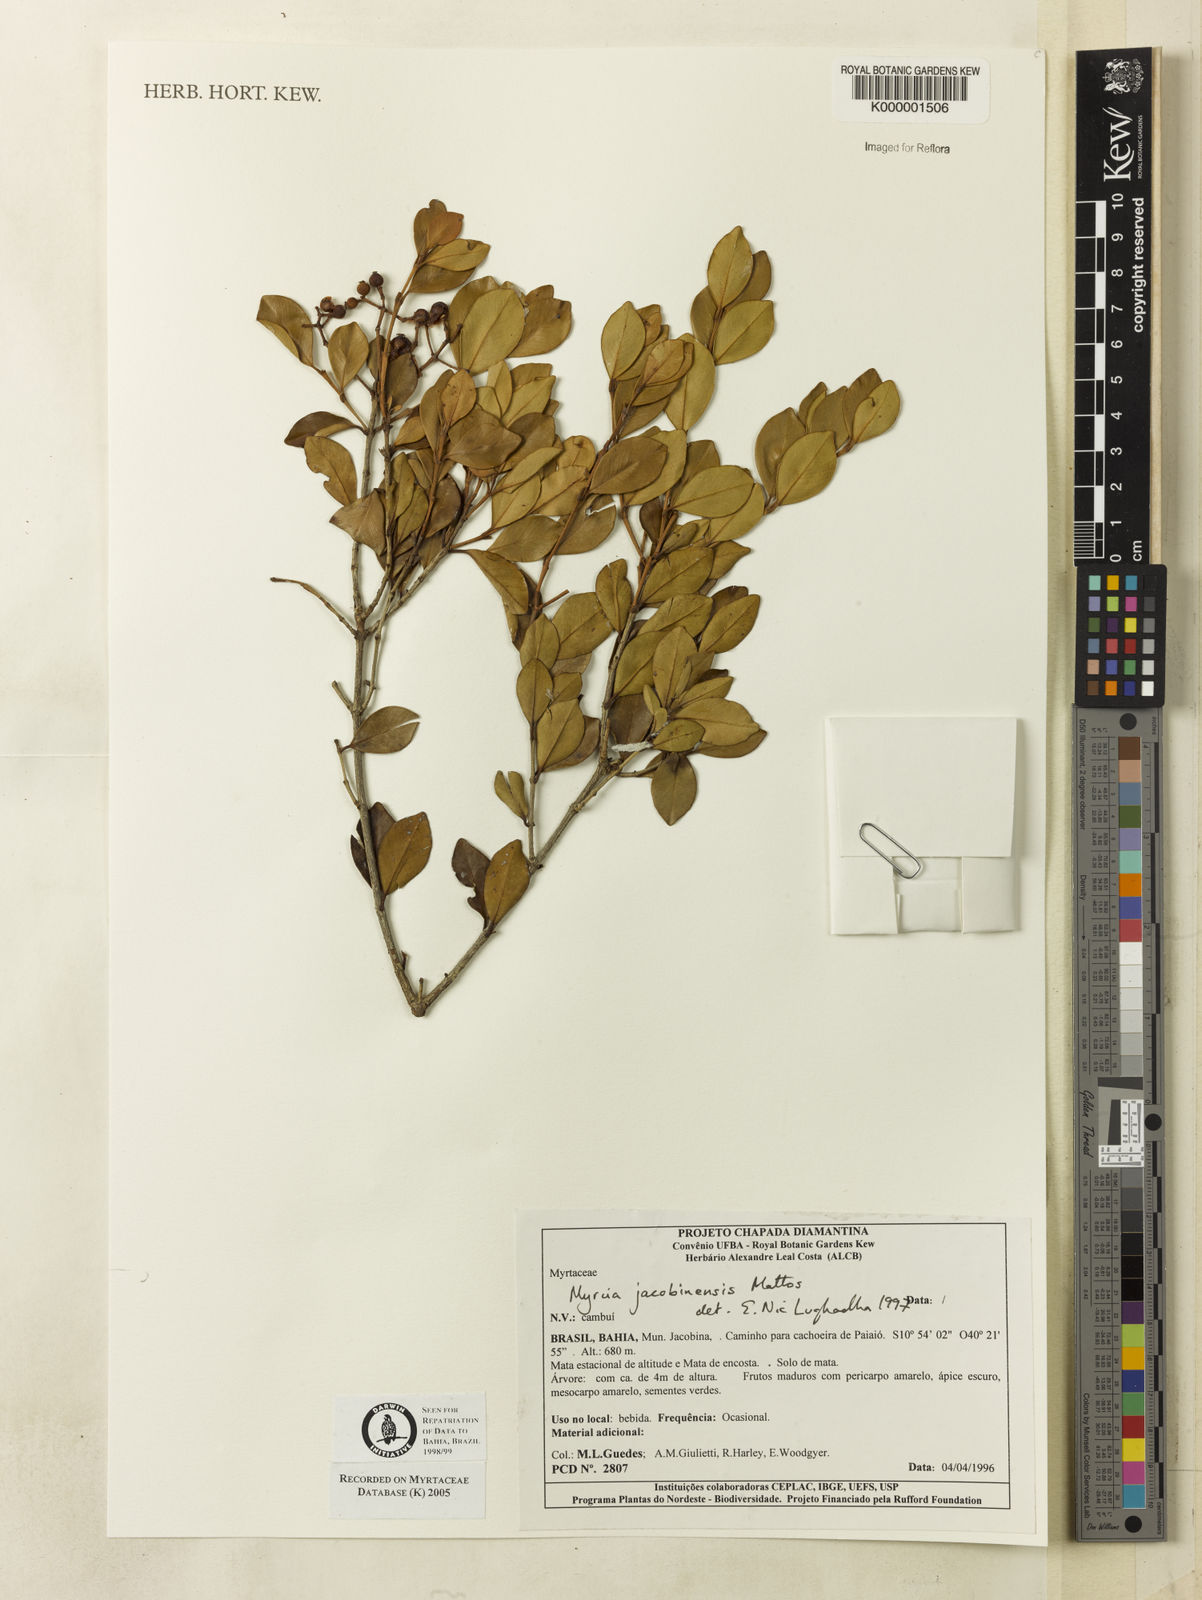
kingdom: Plantae
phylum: Tracheophyta
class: Magnoliopsida
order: Myrtales
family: Myrtaceae
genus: Myrcia
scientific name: Myrcia jacobinensis
